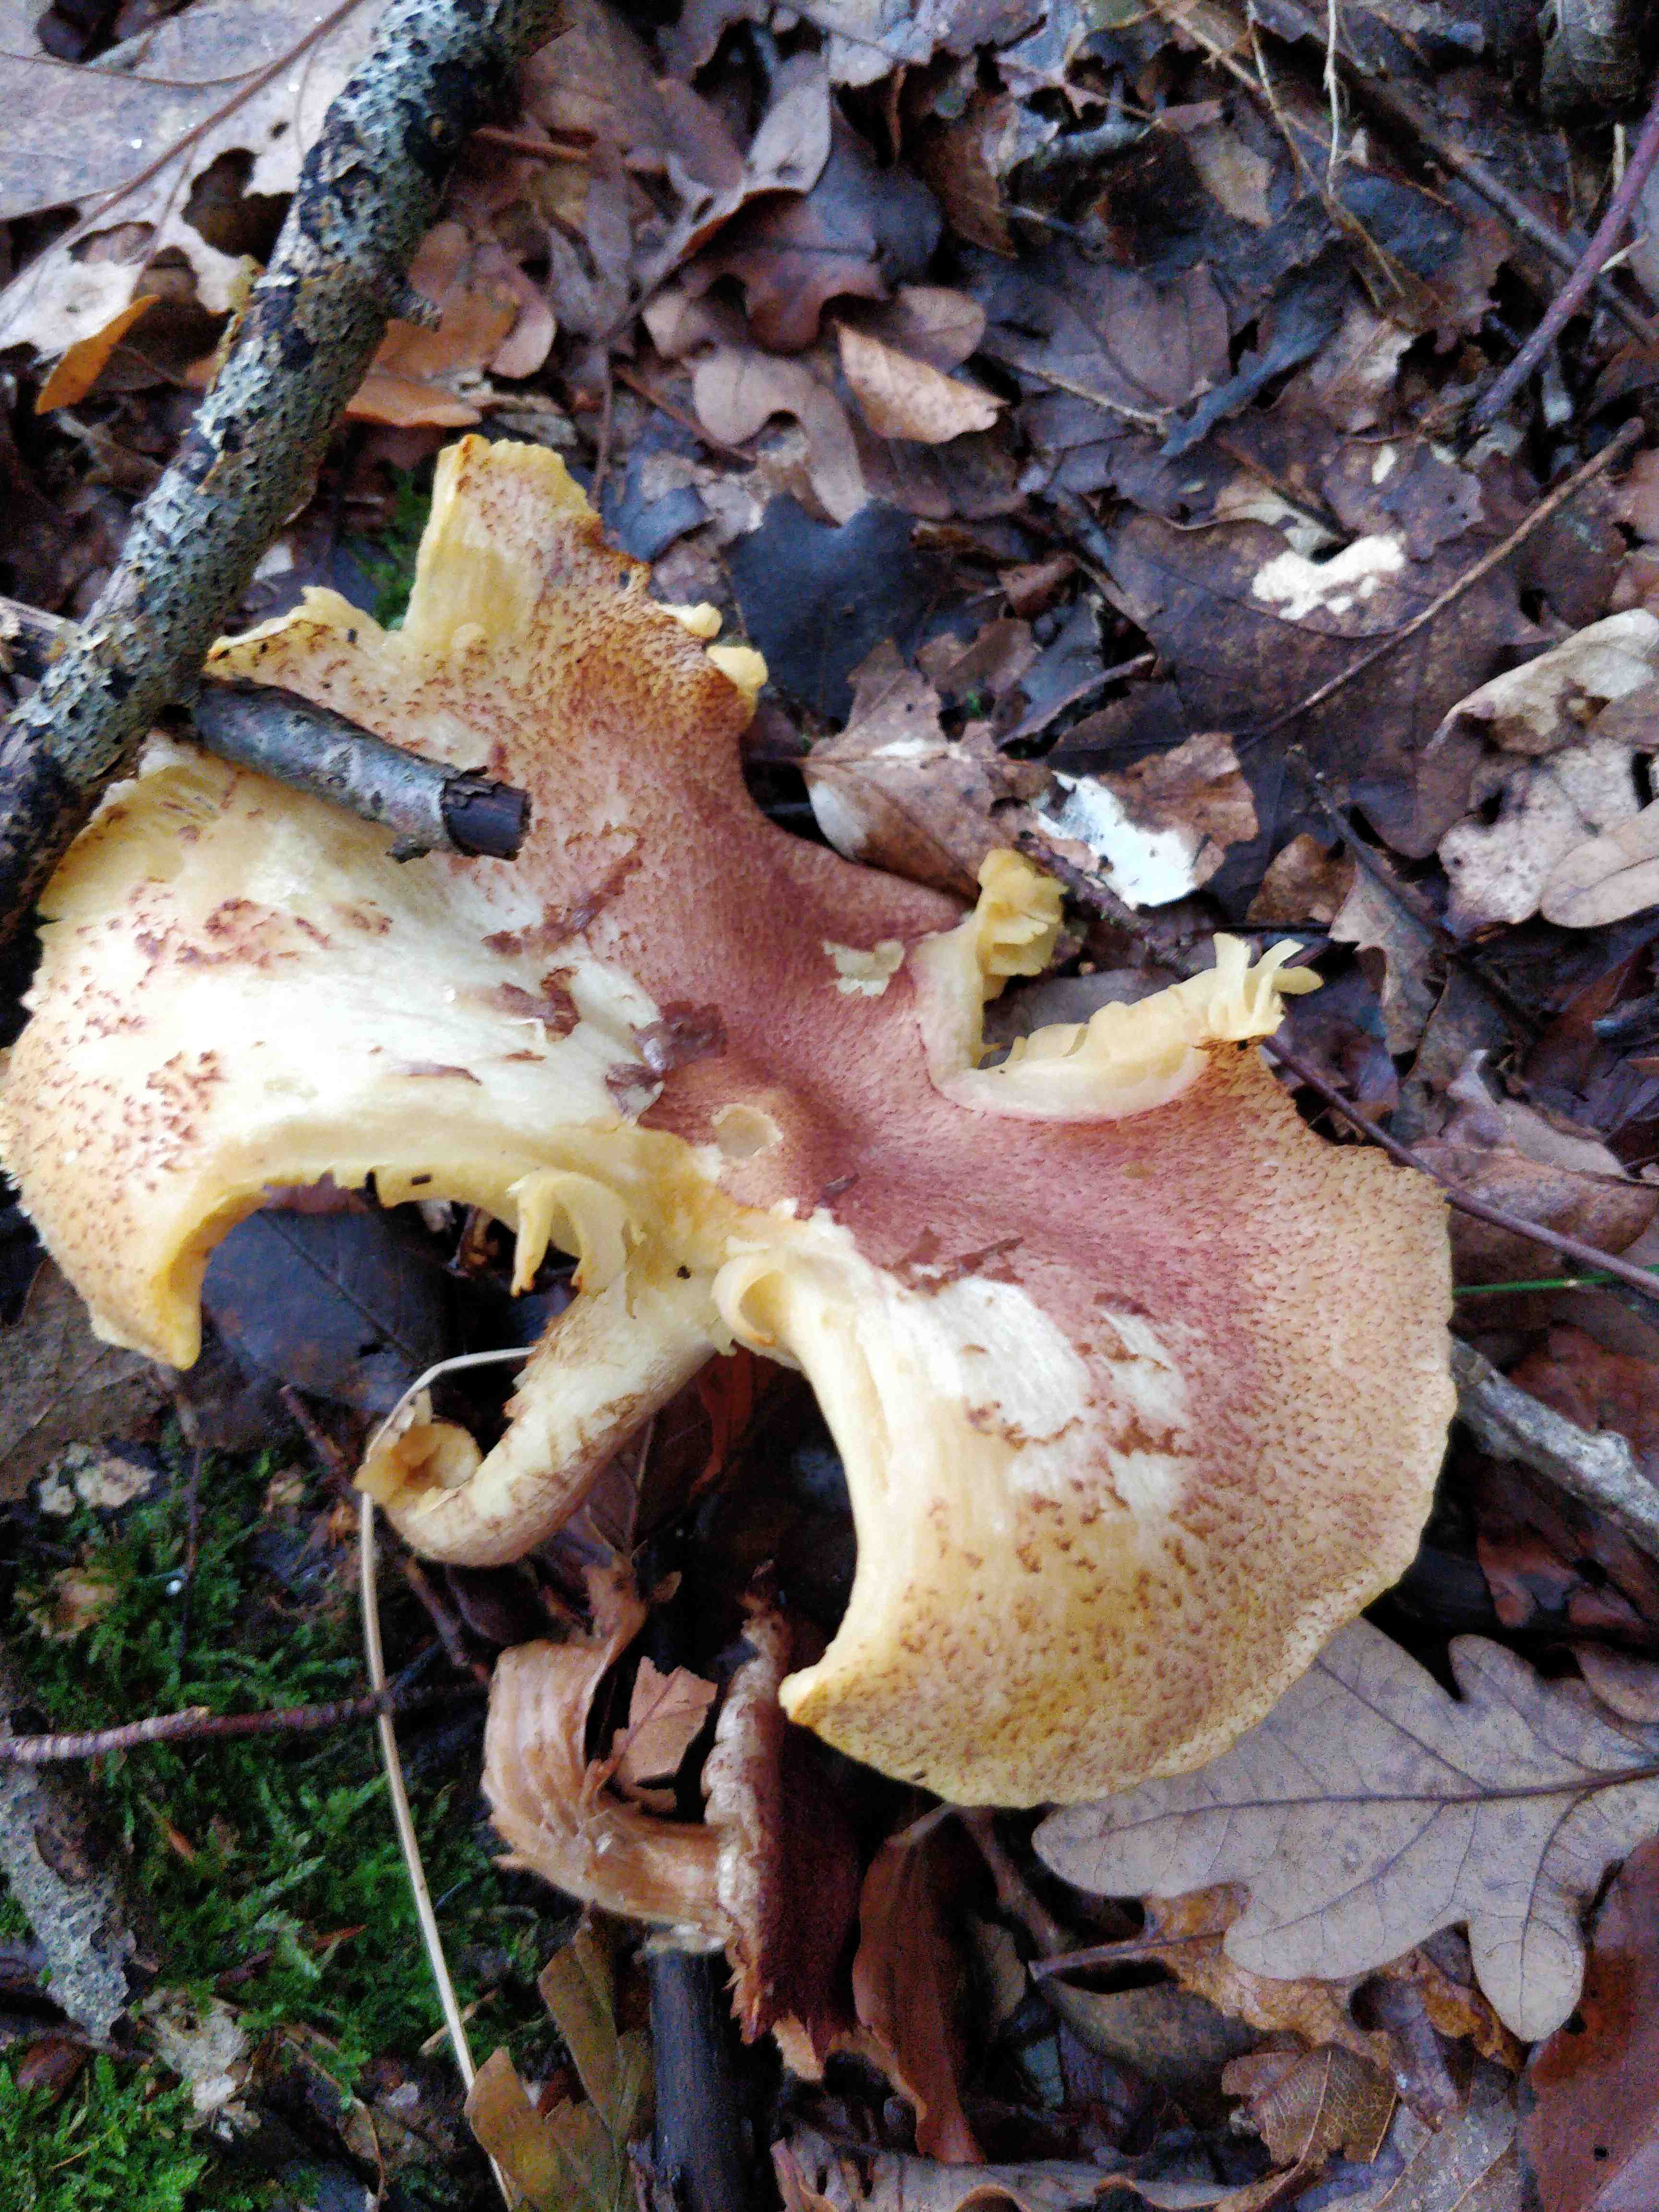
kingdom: Fungi
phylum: Basidiomycota
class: Agaricomycetes
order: Agaricales
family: Tricholomataceae
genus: Tricholomopsis
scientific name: Tricholomopsis rutilans
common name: purpur-væbnerhat
